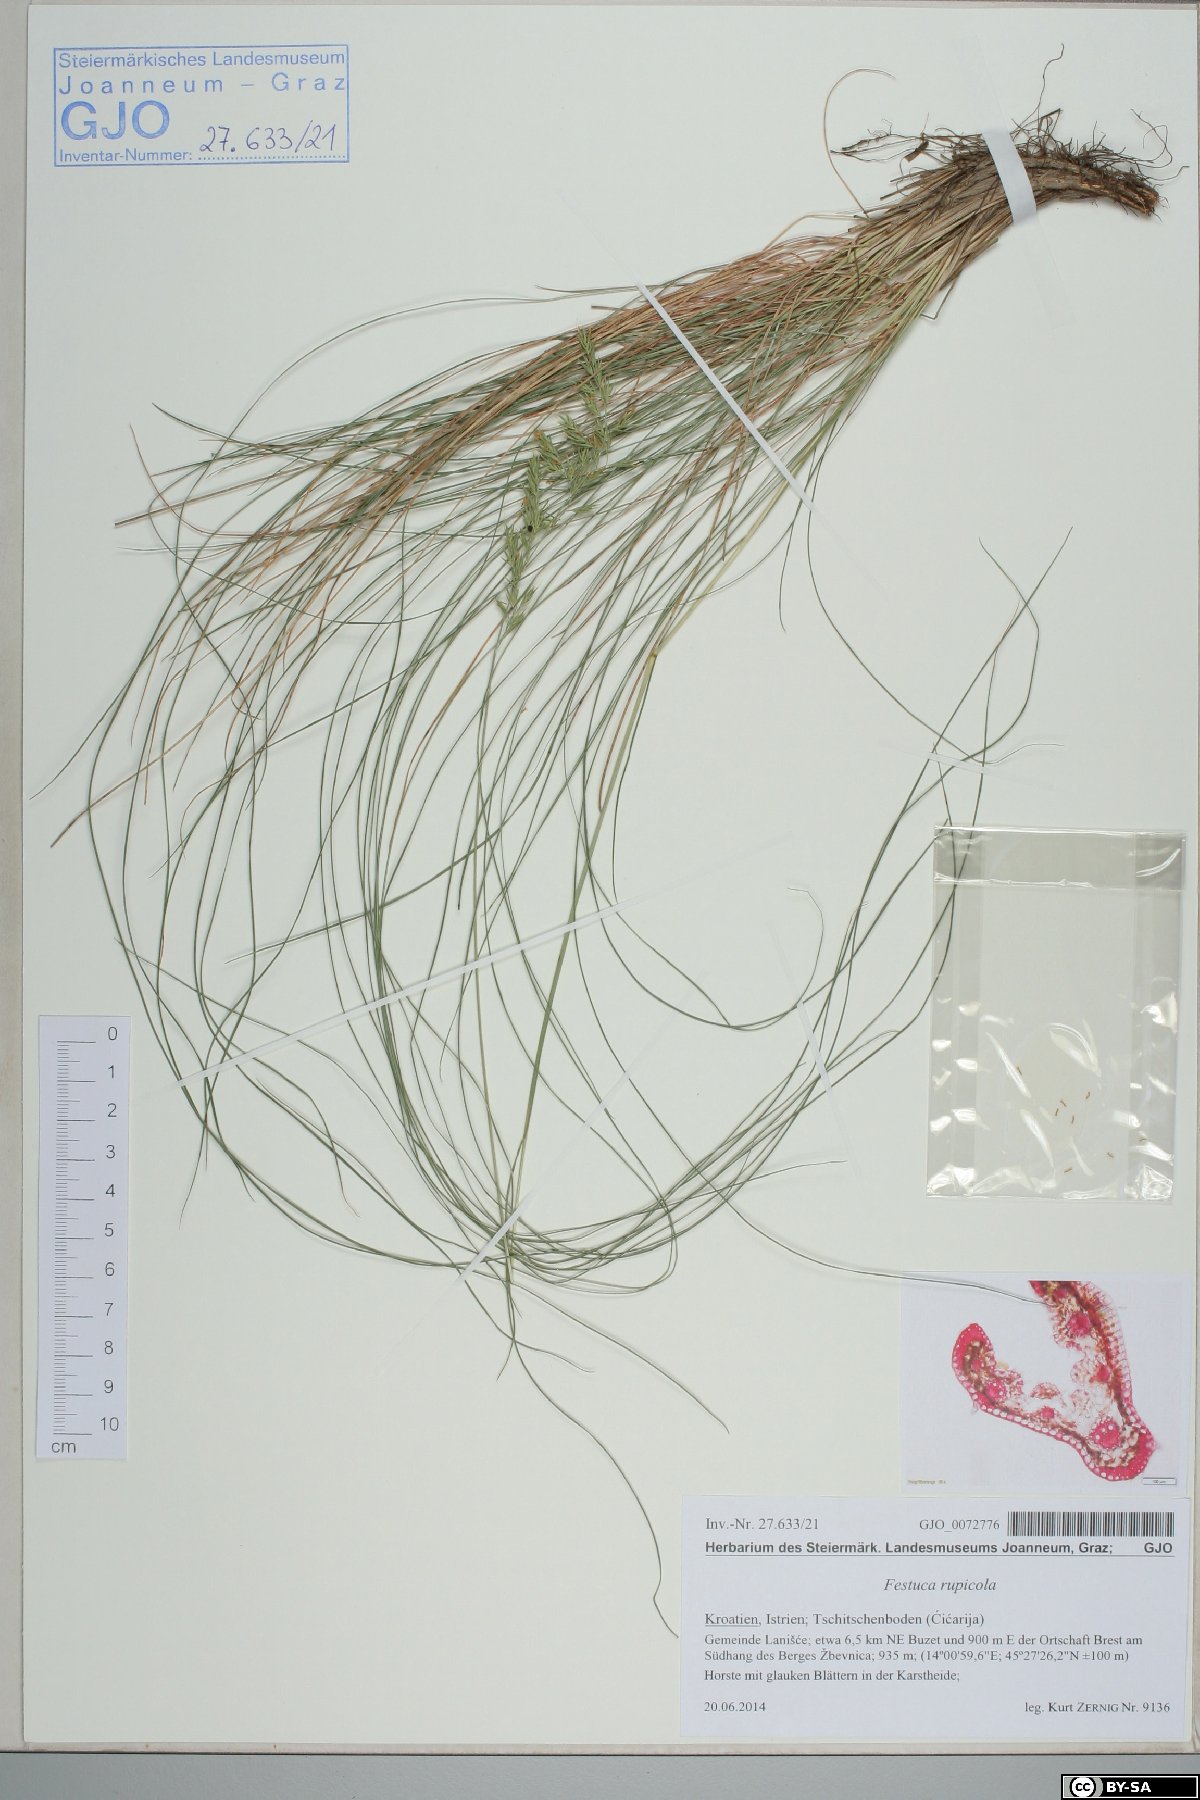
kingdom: Plantae
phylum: Tracheophyta
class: Liliopsida
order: Poales
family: Poaceae
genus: Festuca
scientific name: Festuca rupicola
